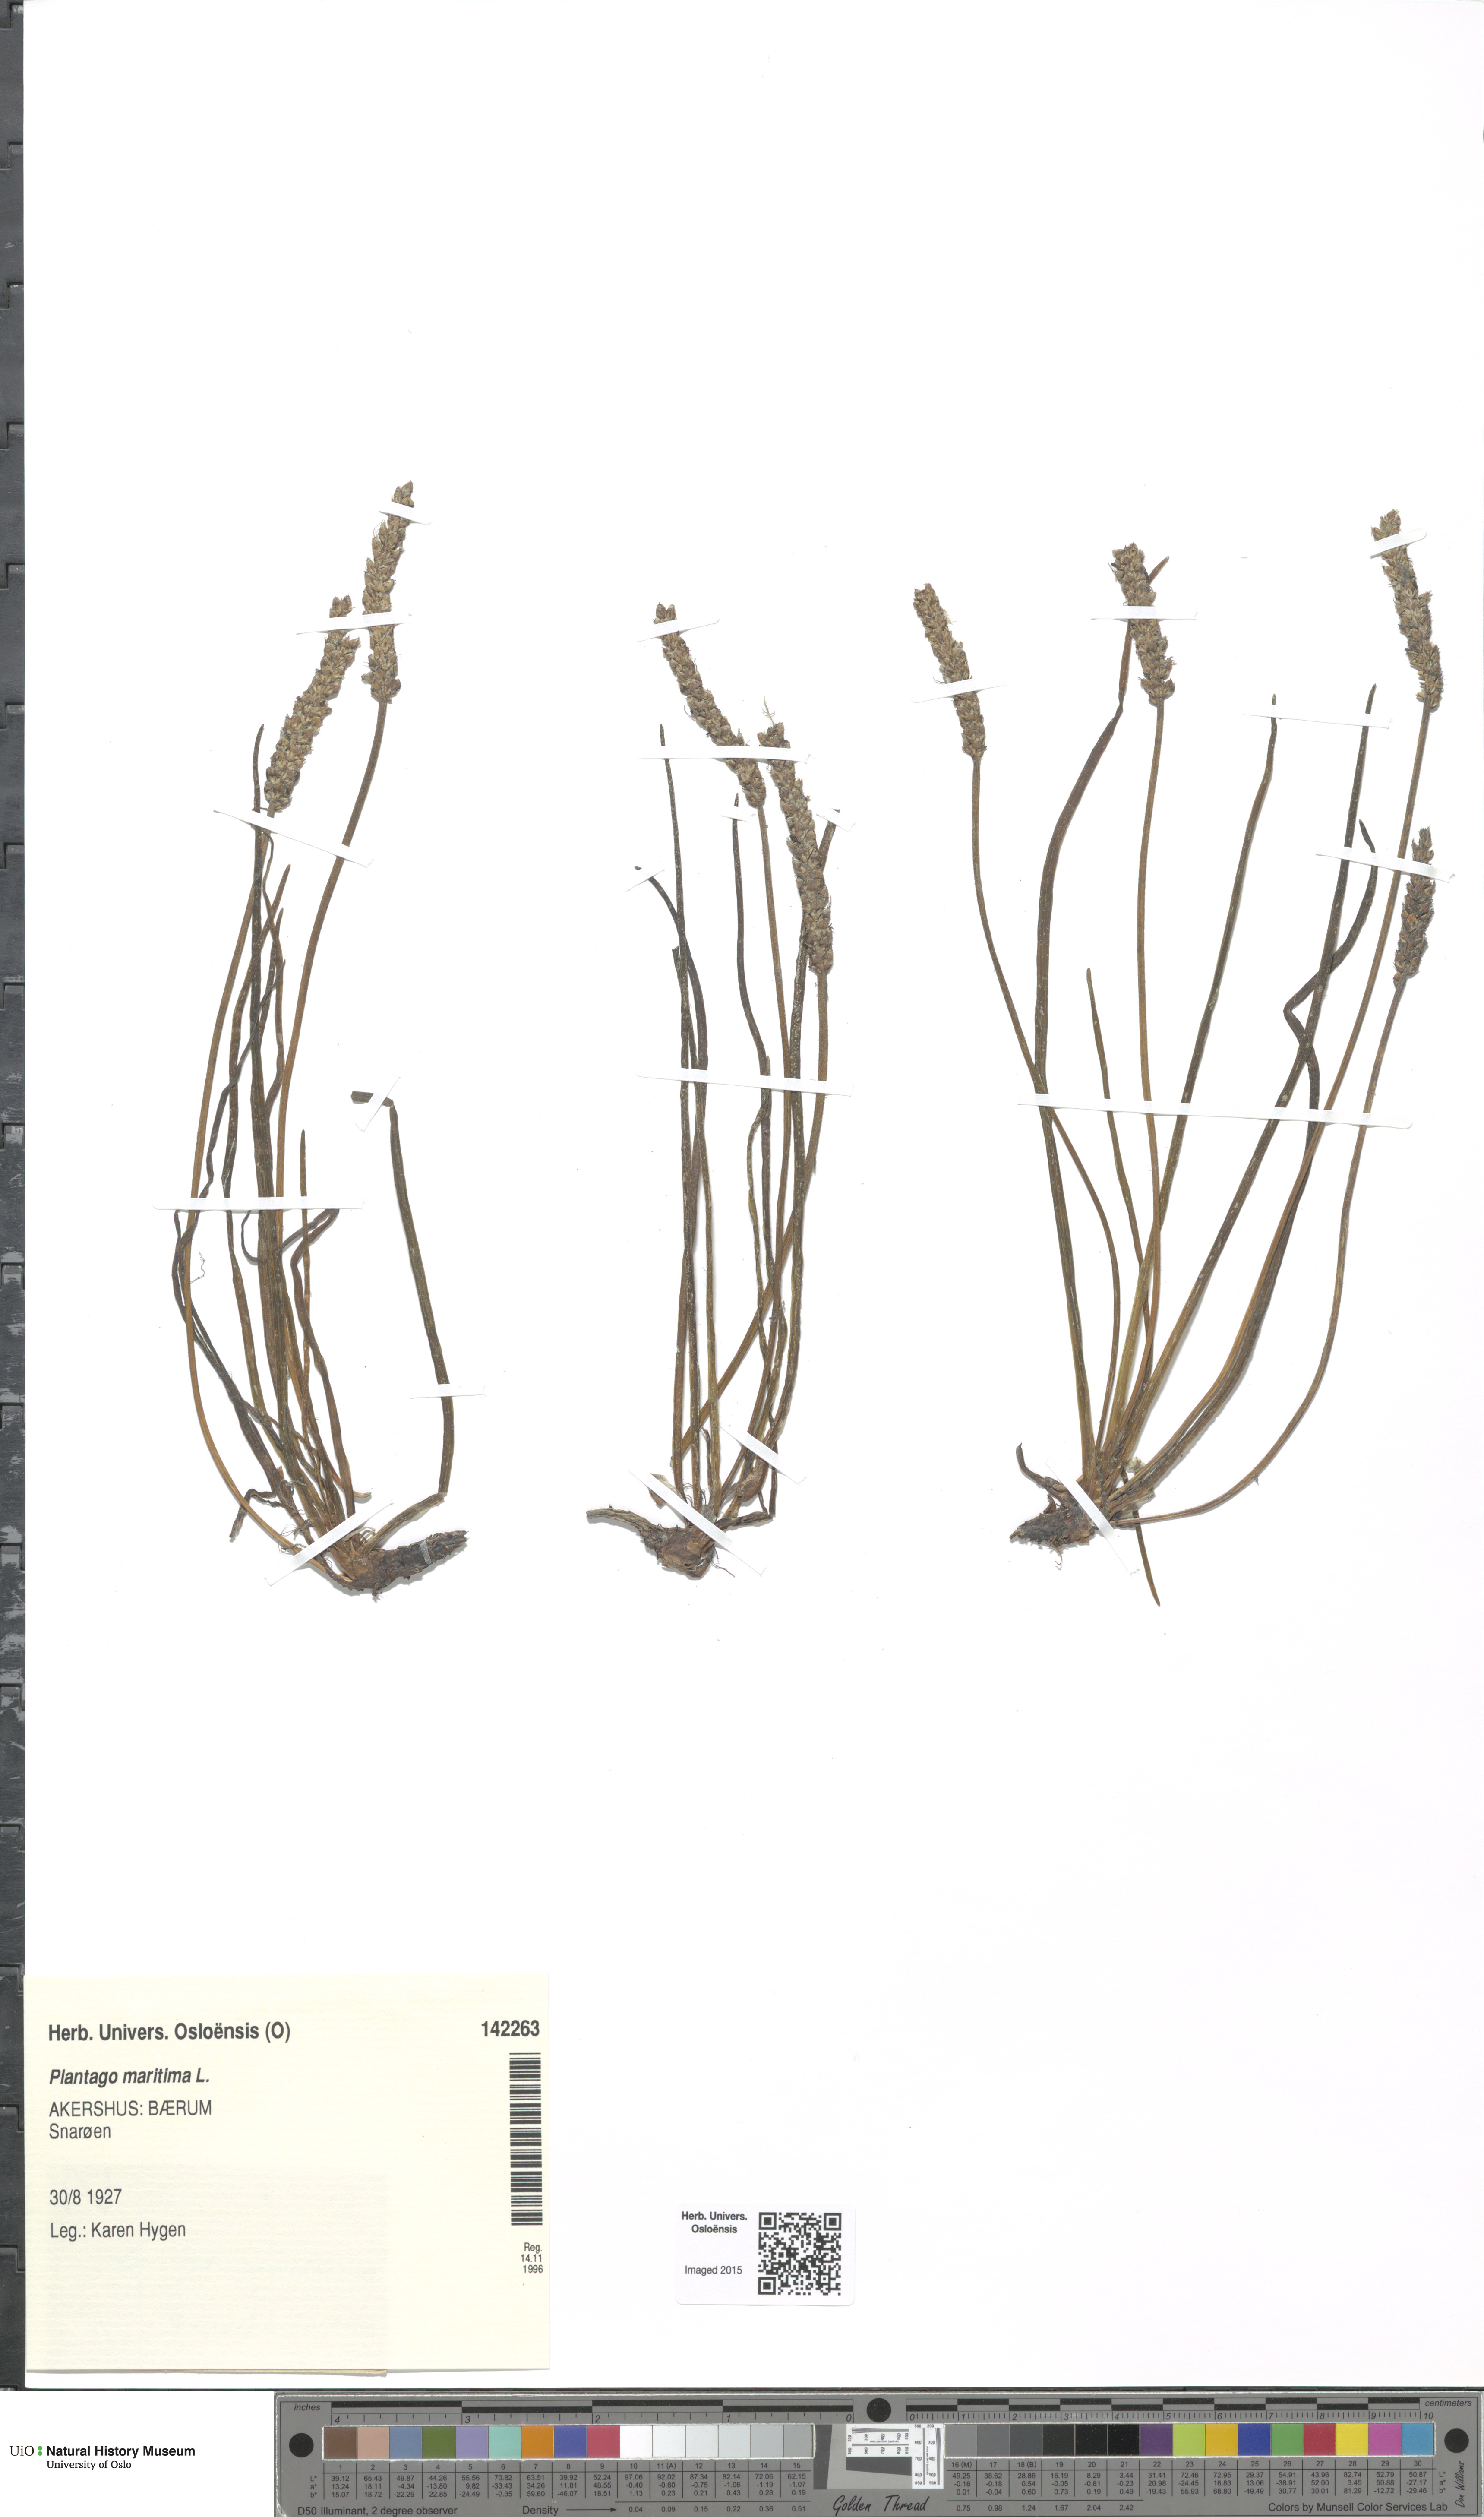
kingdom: Plantae
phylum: Tracheophyta
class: Magnoliopsida
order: Lamiales
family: Plantaginaceae
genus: Plantago
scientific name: Plantago maritima
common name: Sea plantain
